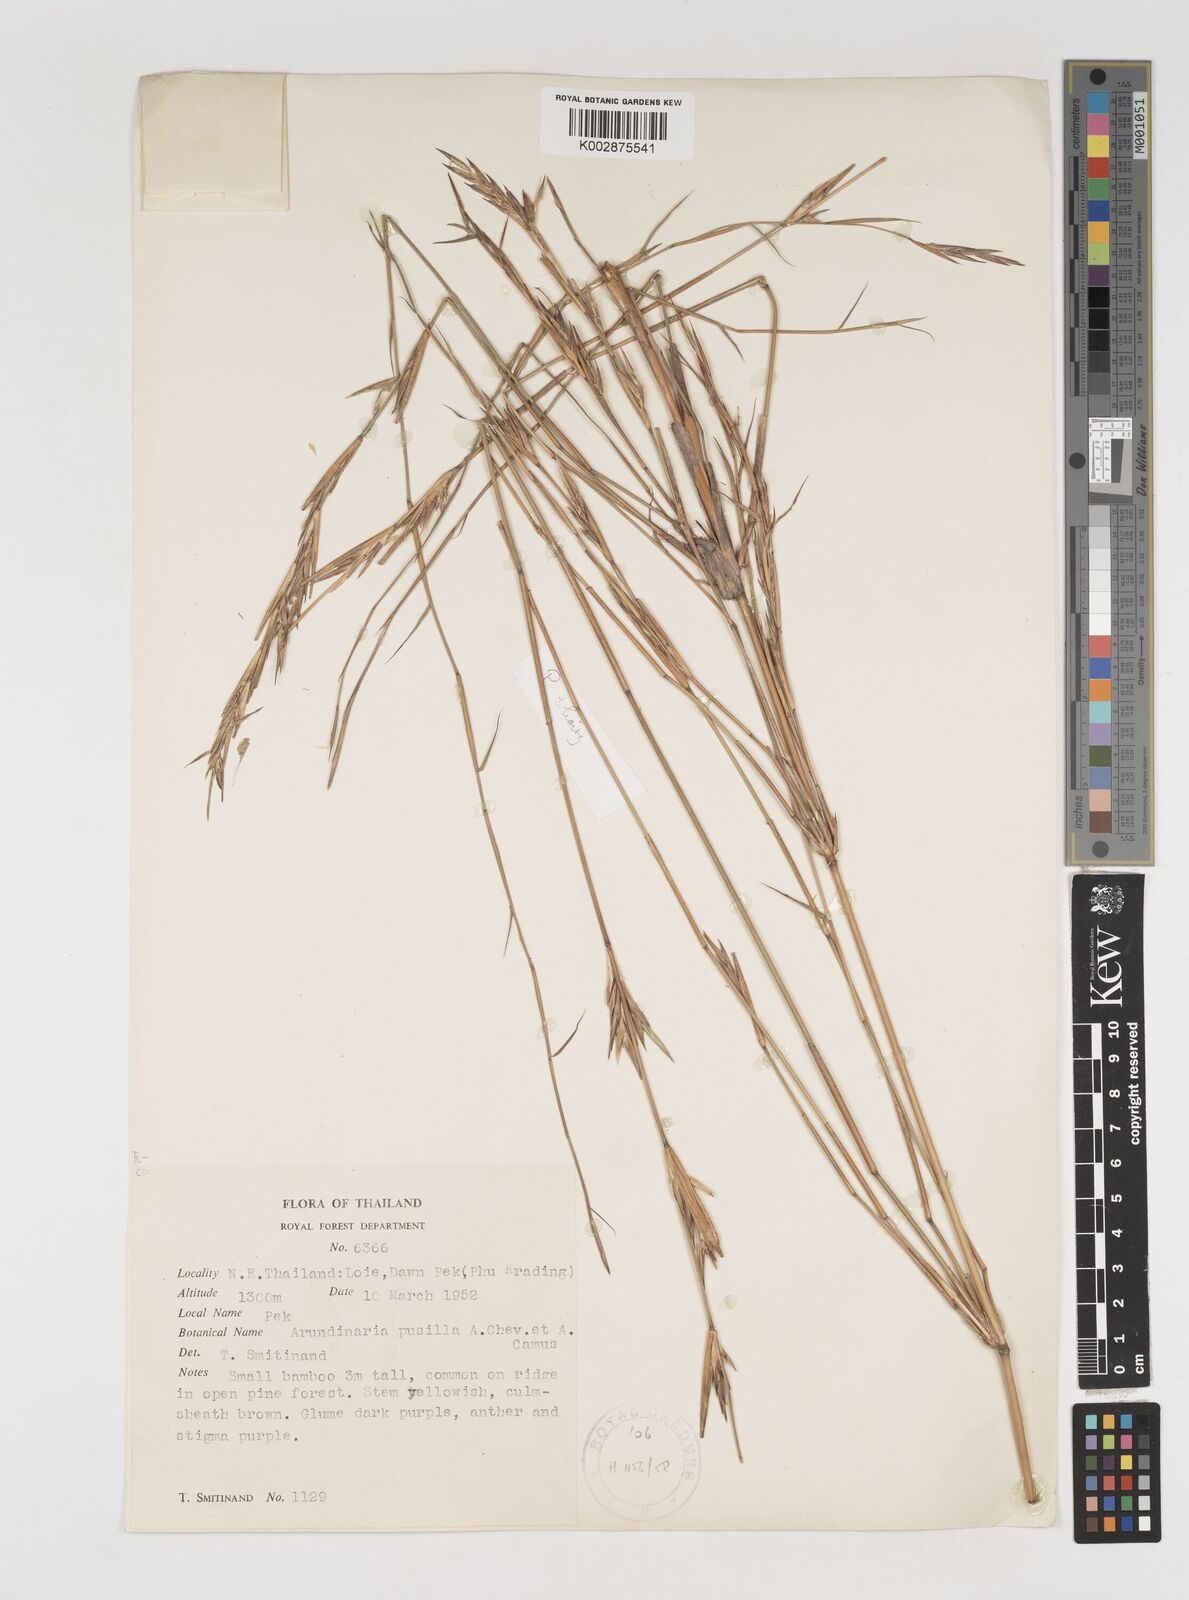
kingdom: Plantae
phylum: Tracheophyta
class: Liliopsida
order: Poales
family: Poaceae
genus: Vietnamosasa
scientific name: Vietnamosasa
